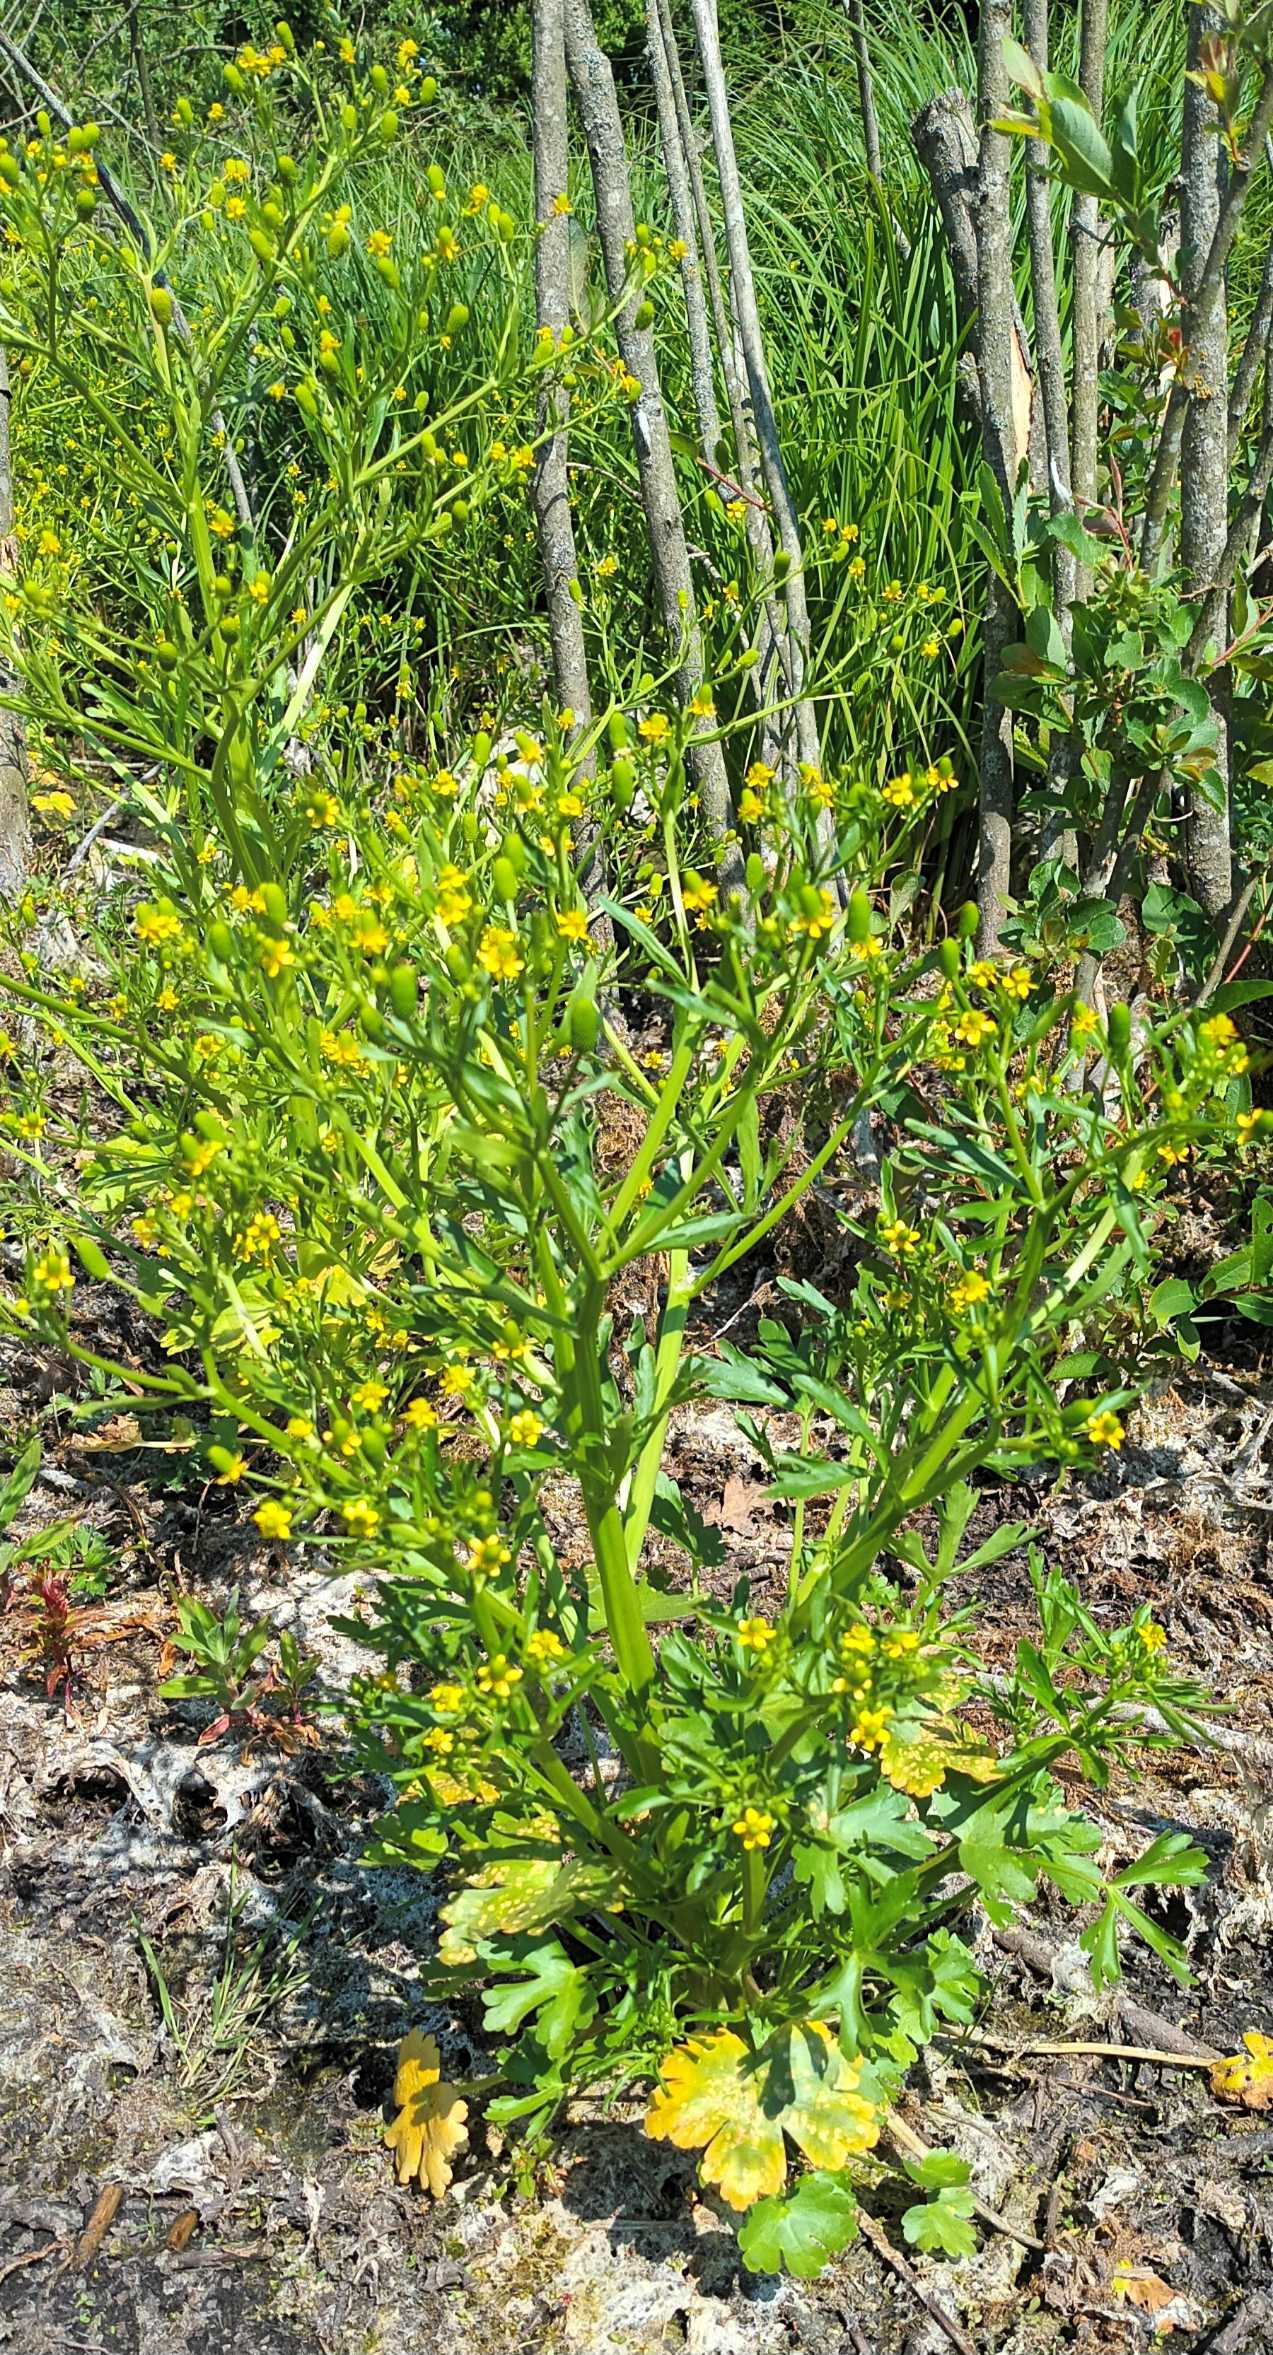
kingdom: Plantae
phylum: Tracheophyta
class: Magnoliopsida
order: Ranunculales
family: Ranunculaceae
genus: Ranunculus
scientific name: Ranunculus sceleratus
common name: Tigger-ranunkel
